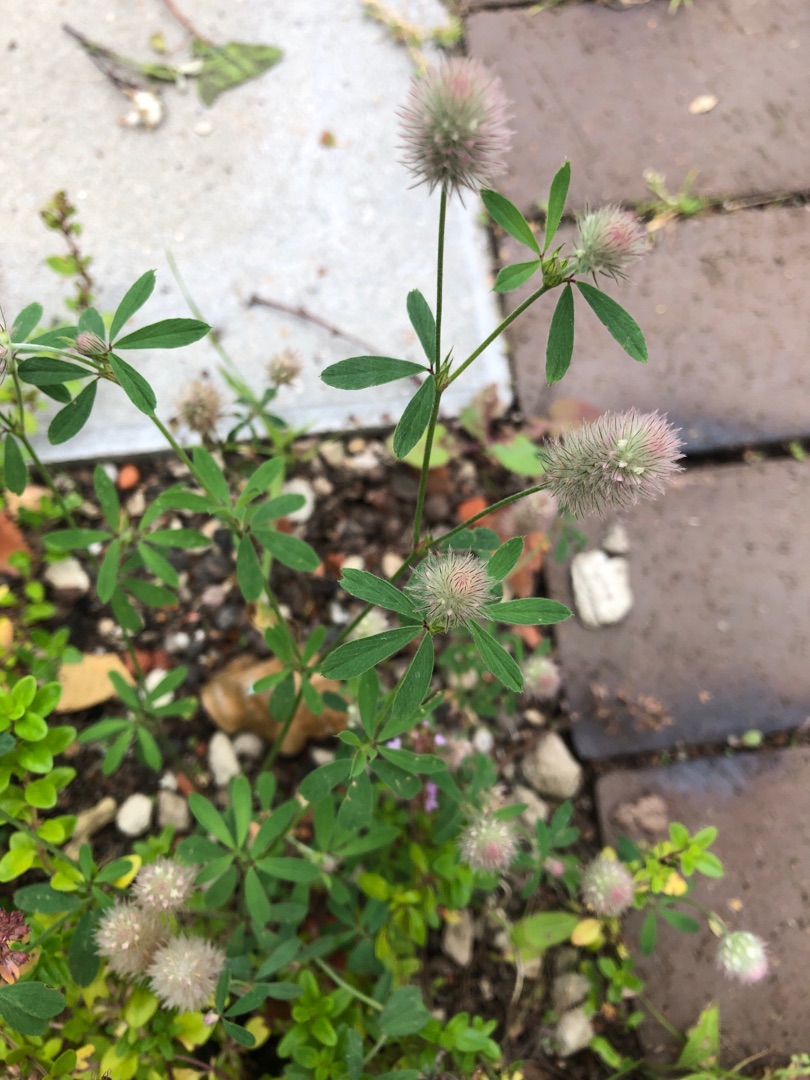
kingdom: Plantae
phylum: Tracheophyta
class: Magnoliopsida
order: Fabales
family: Fabaceae
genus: Trifolium
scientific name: Trifolium arvense
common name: Hare-kløver
